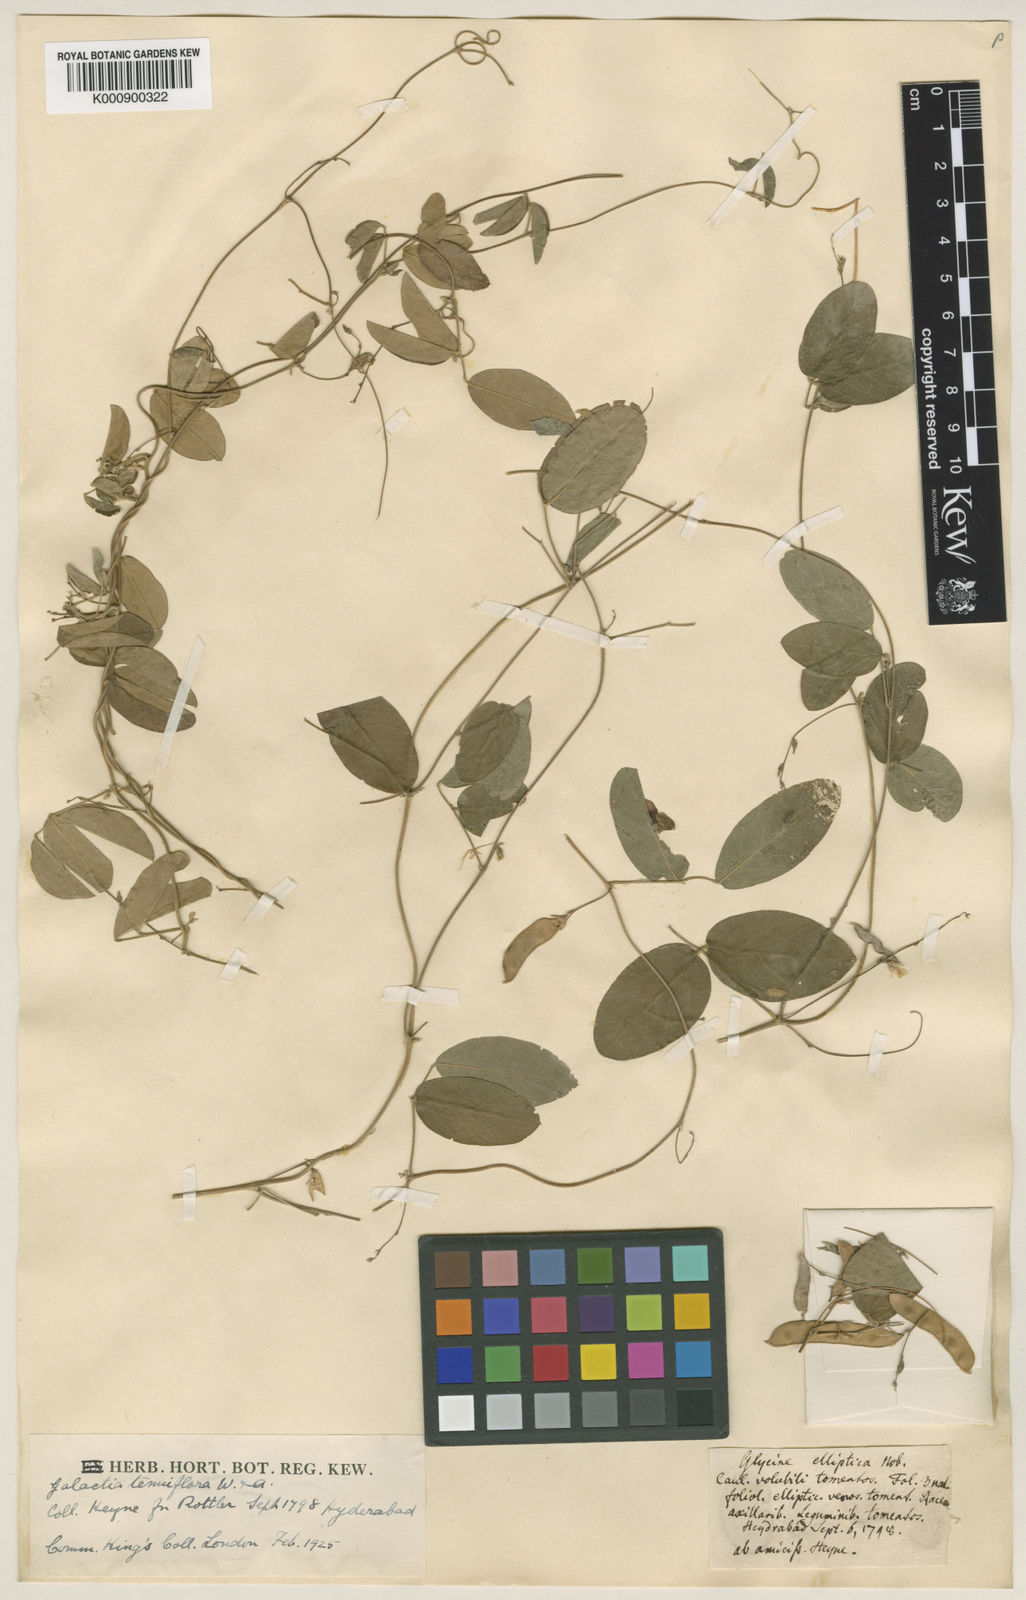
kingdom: Plantae
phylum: Tracheophyta
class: Magnoliopsida
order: Fabales
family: Fabaceae
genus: Galactia
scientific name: Galactia striata
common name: Florida hammock milkpea
